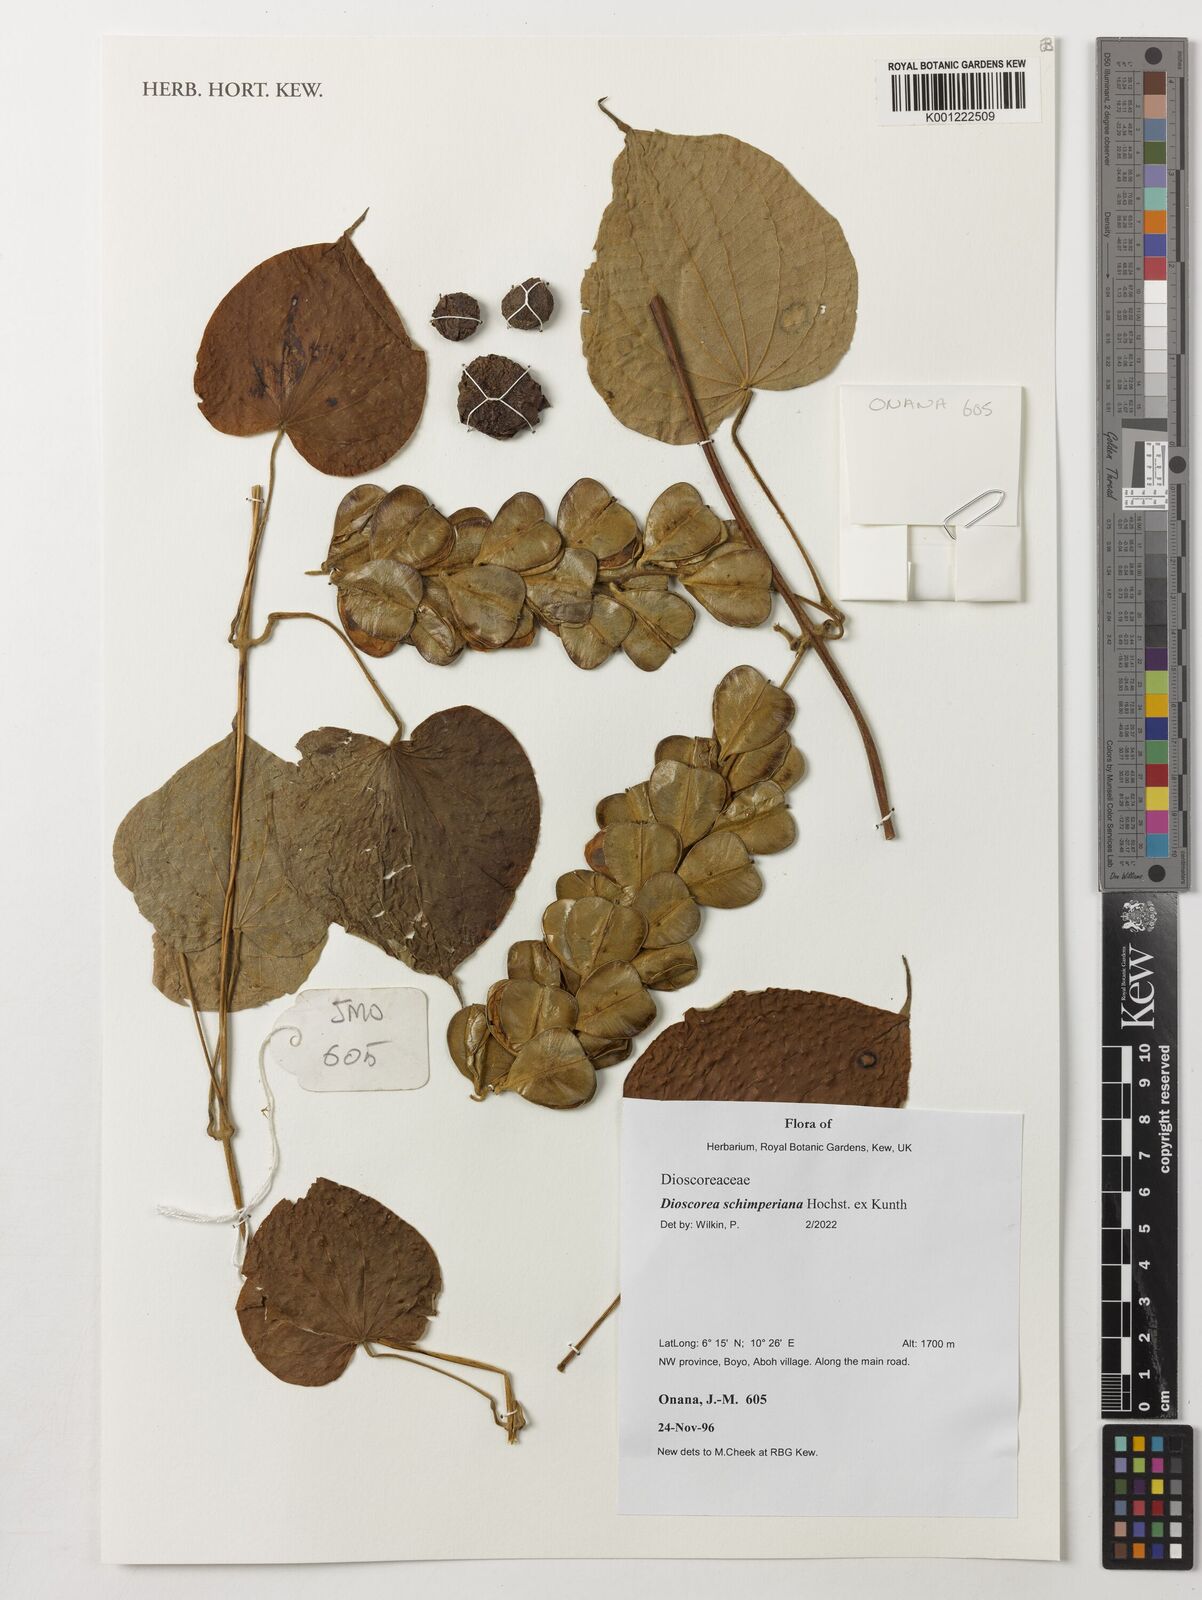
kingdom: Plantae
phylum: Tracheophyta
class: Liliopsida
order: Dioscoreales
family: Dioscoreaceae
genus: Dioscorea
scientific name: Dioscorea schimperiana
